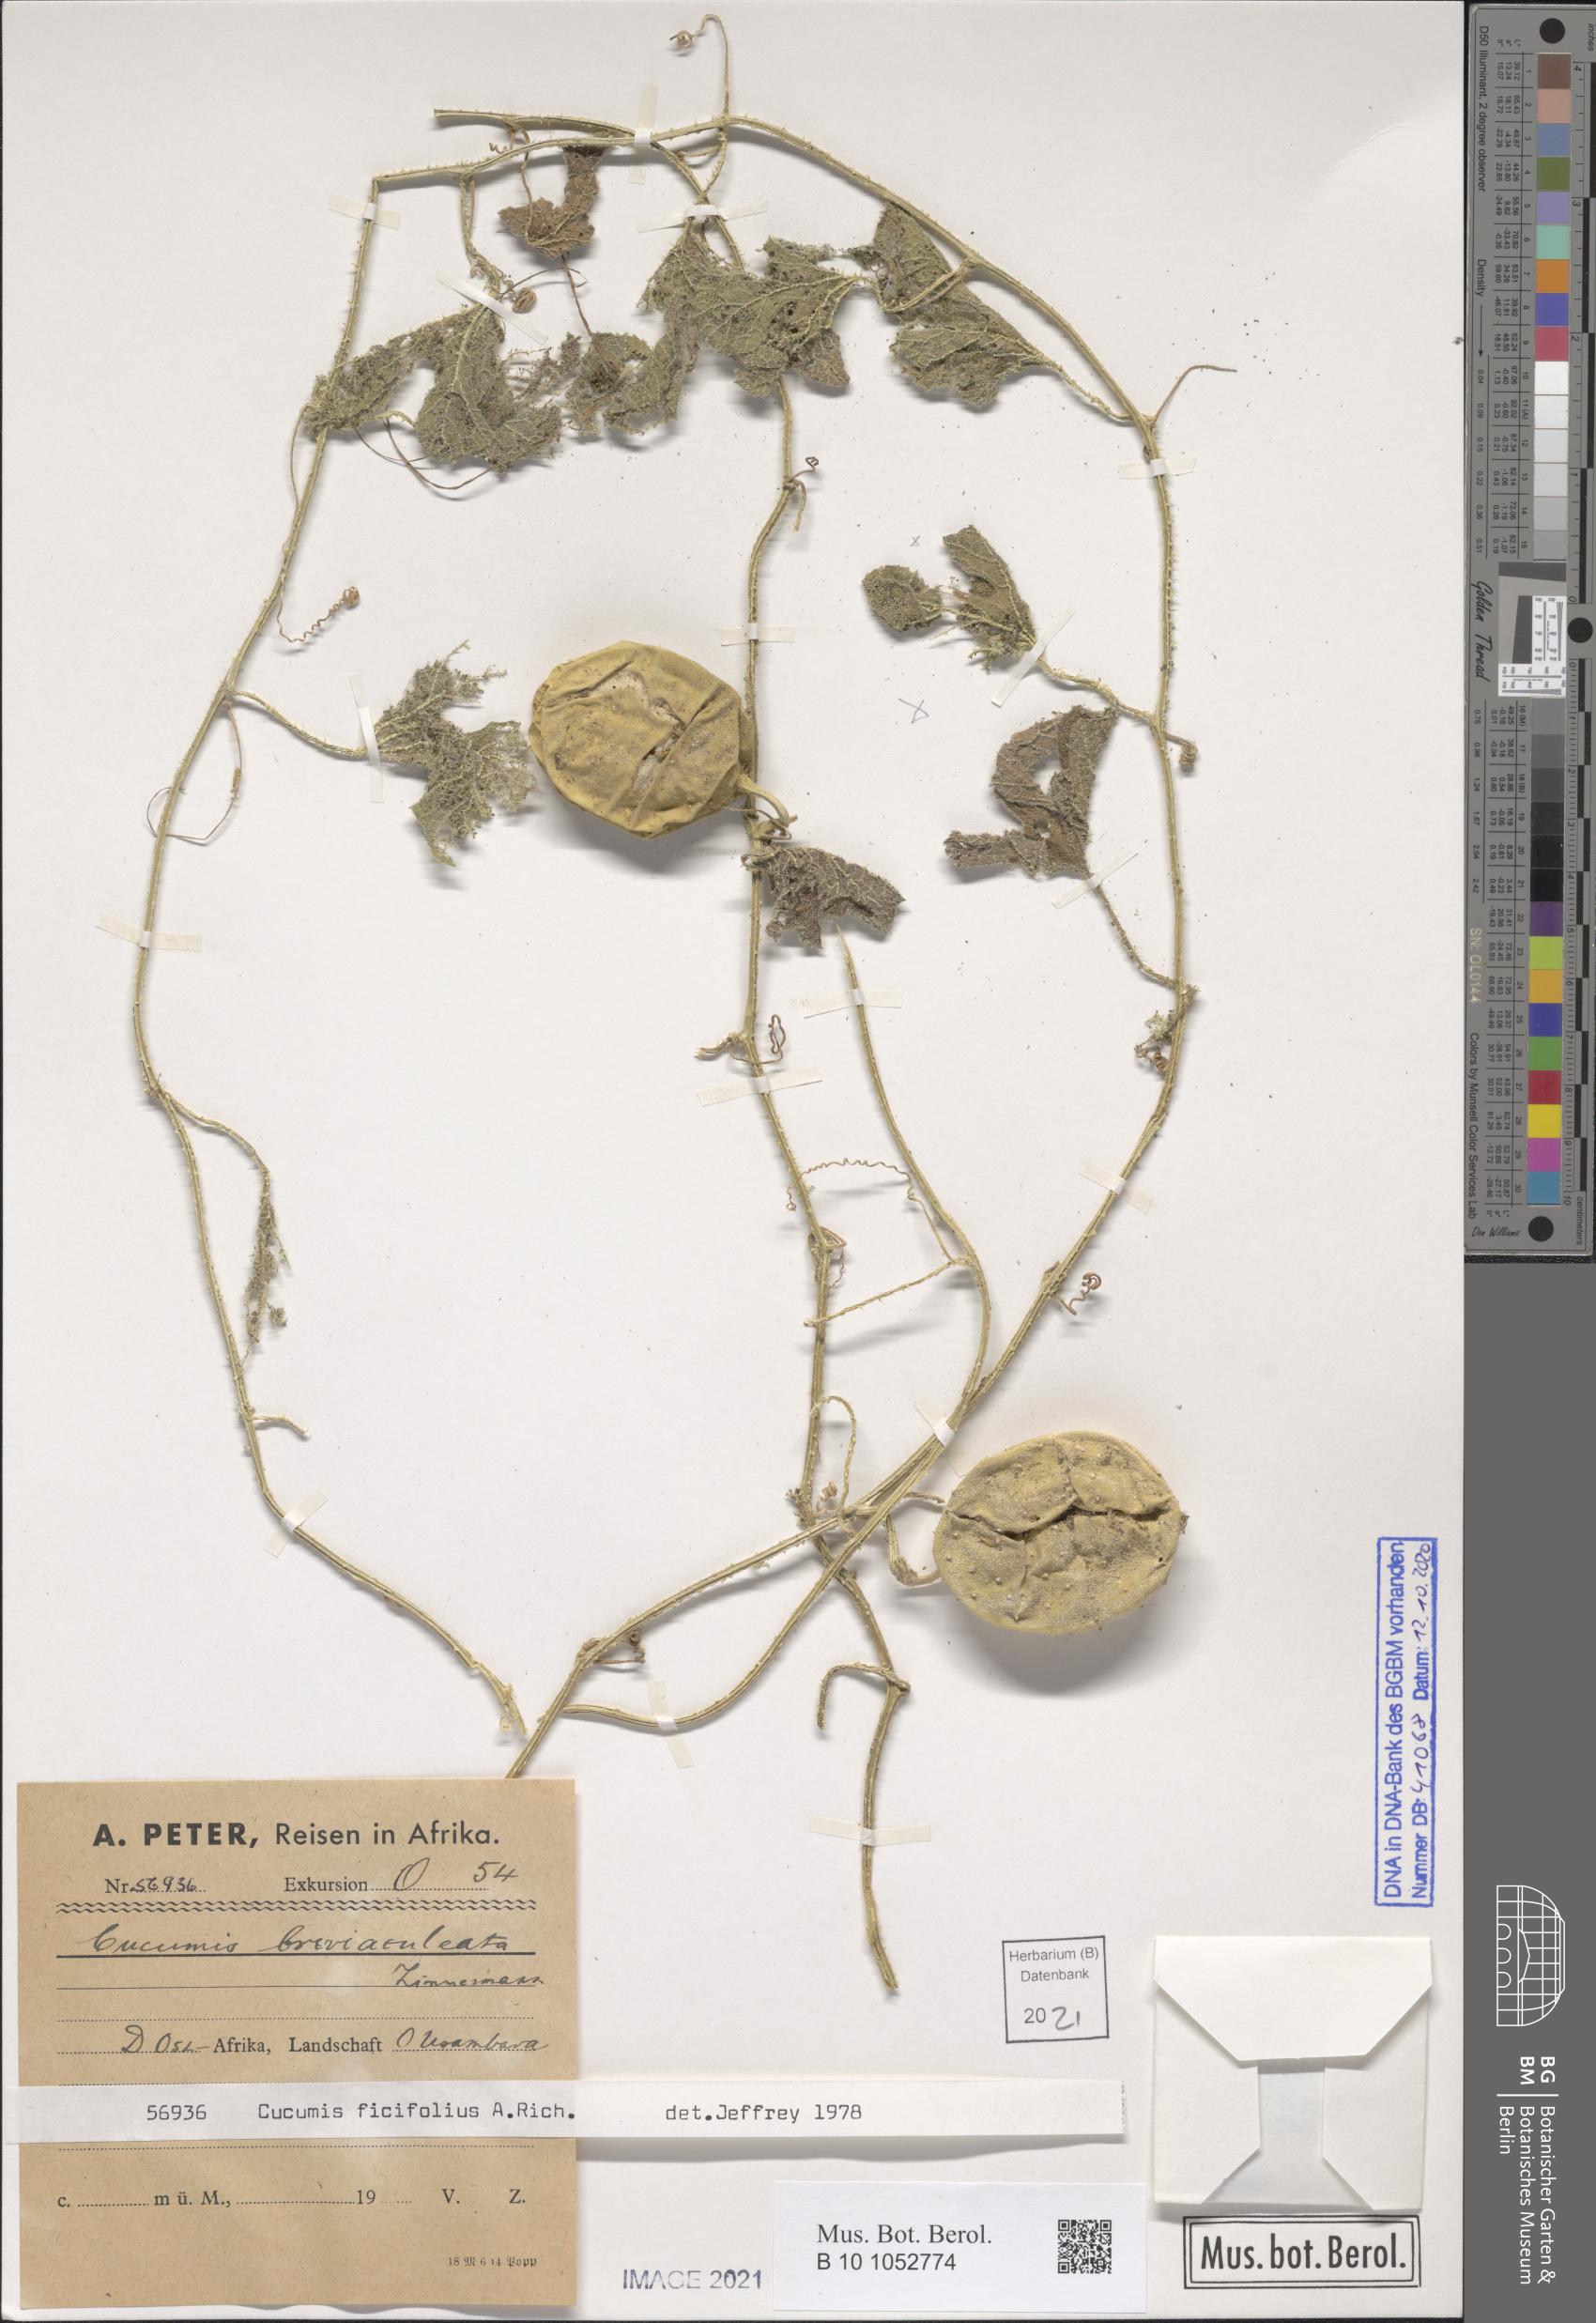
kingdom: Plantae
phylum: Tracheophyta
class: Magnoliopsida
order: Cucurbitales
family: Cucurbitaceae
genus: Cucumis
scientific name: Cucumis ficifolius
